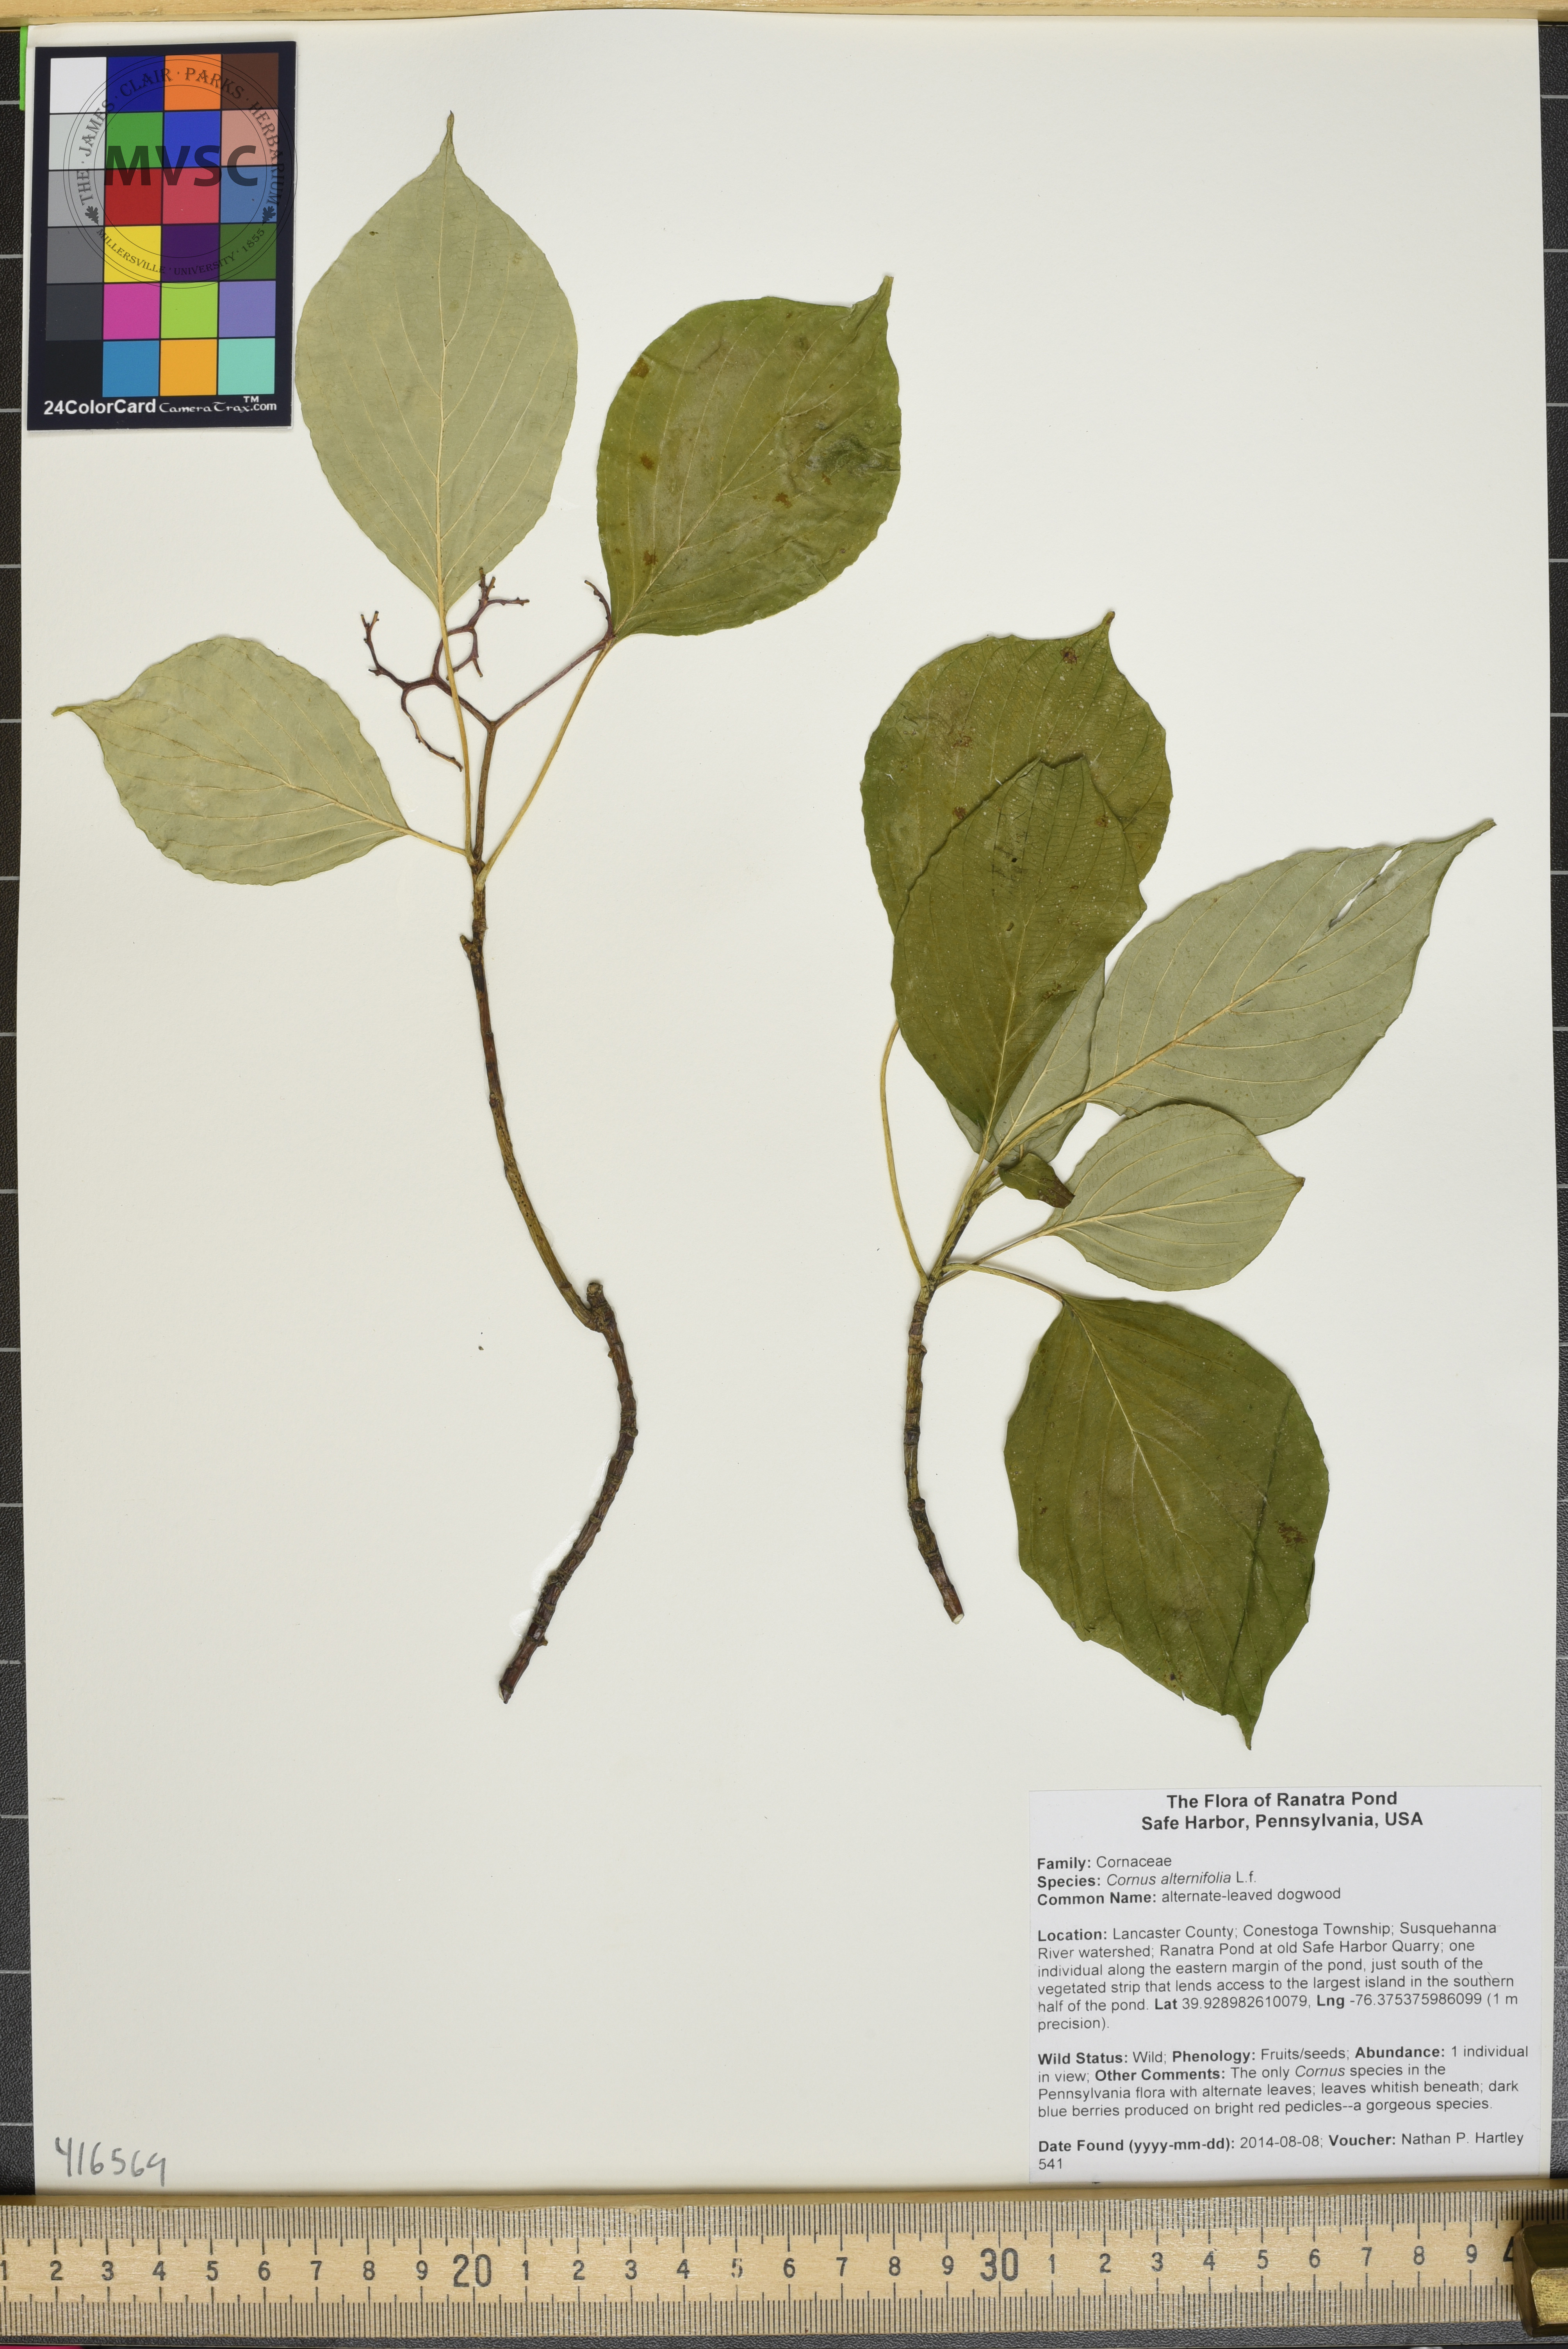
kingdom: Plantae
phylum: Tracheophyta
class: Magnoliopsida
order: Cornales
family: Cornaceae
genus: Cornus
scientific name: Cornus alternifolia
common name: alternate-leaved dogwood
